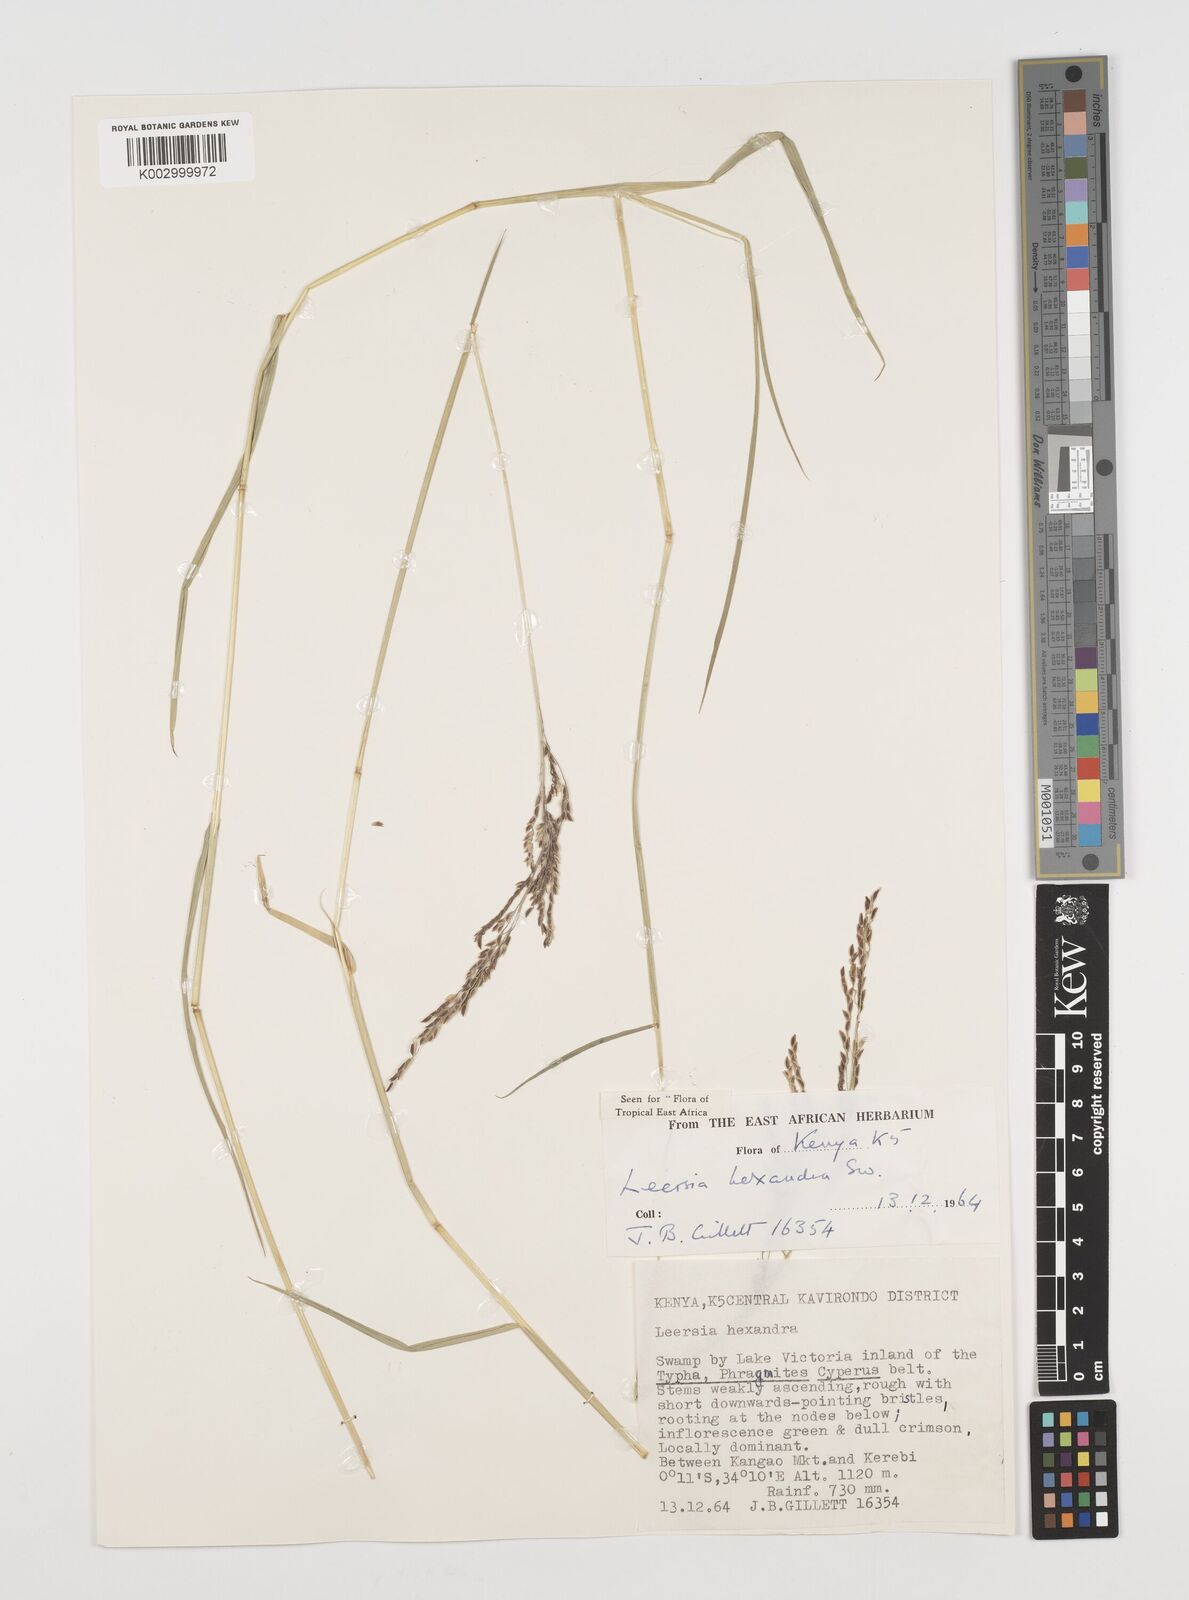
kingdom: Plantae
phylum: Tracheophyta
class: Liliopsida
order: Poales
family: Poaceae
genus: Leersia
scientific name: Leersia hexandra
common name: Southern cut grass
